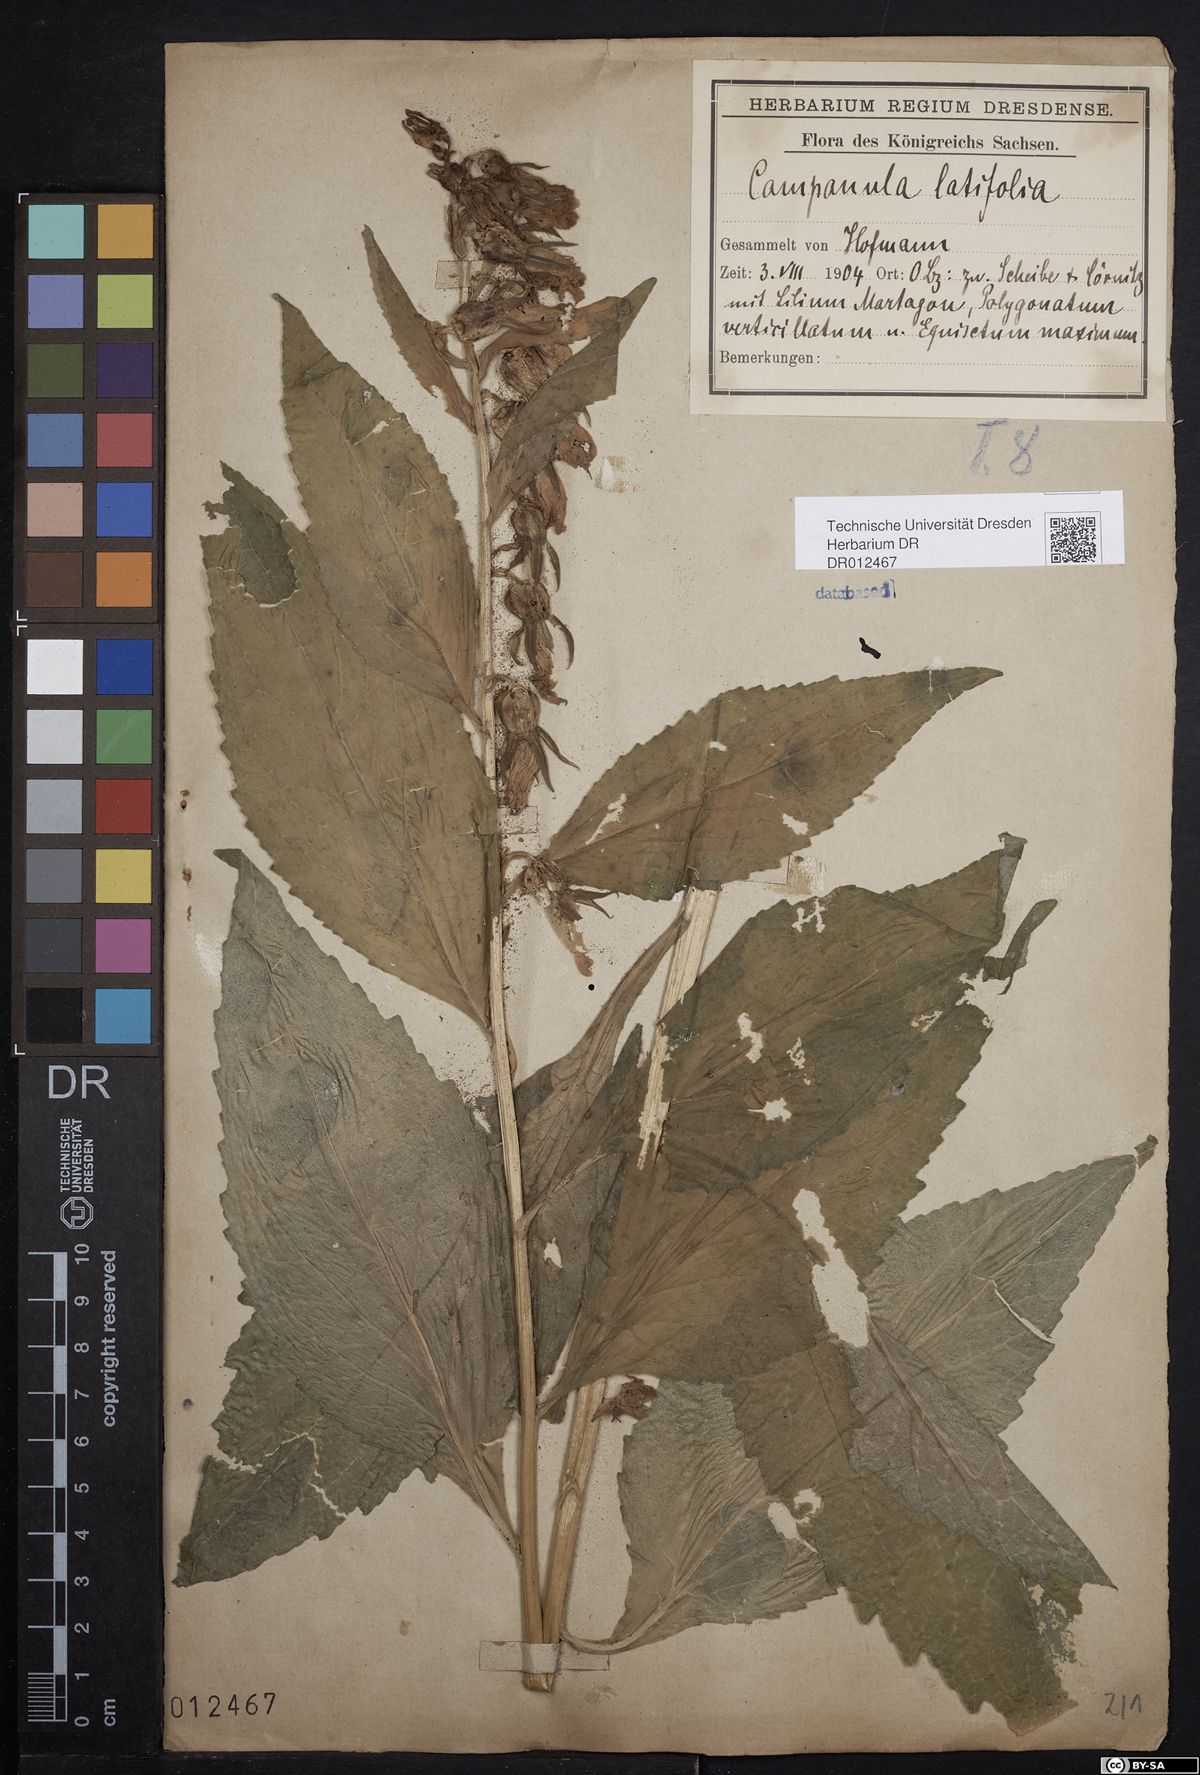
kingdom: Plantae
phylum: Tracheophyta
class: Magnoliopsida
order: Asterales
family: Campanulaceae
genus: Campanula
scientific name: Campanula latifolia
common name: Giant bellflower
